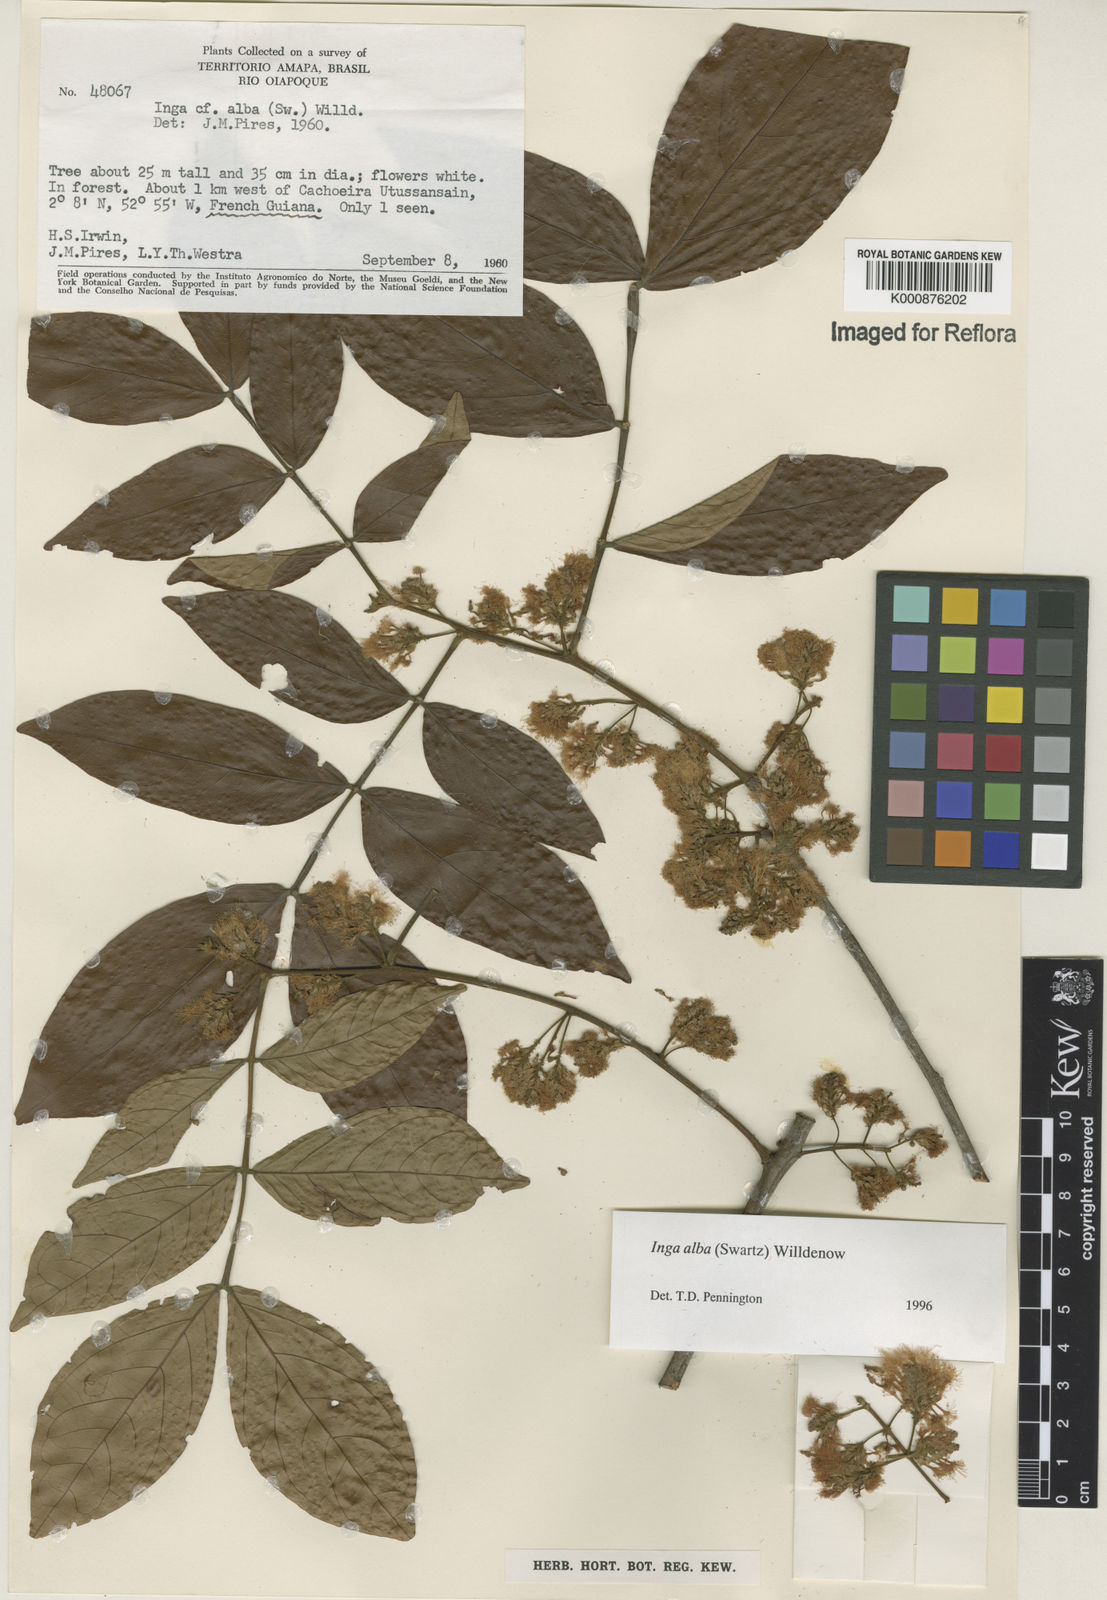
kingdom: Plantae
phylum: Tracheophyta
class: Magnoliopsida
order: Fabales
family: Fabaceae
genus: Inga
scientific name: Inga alba
